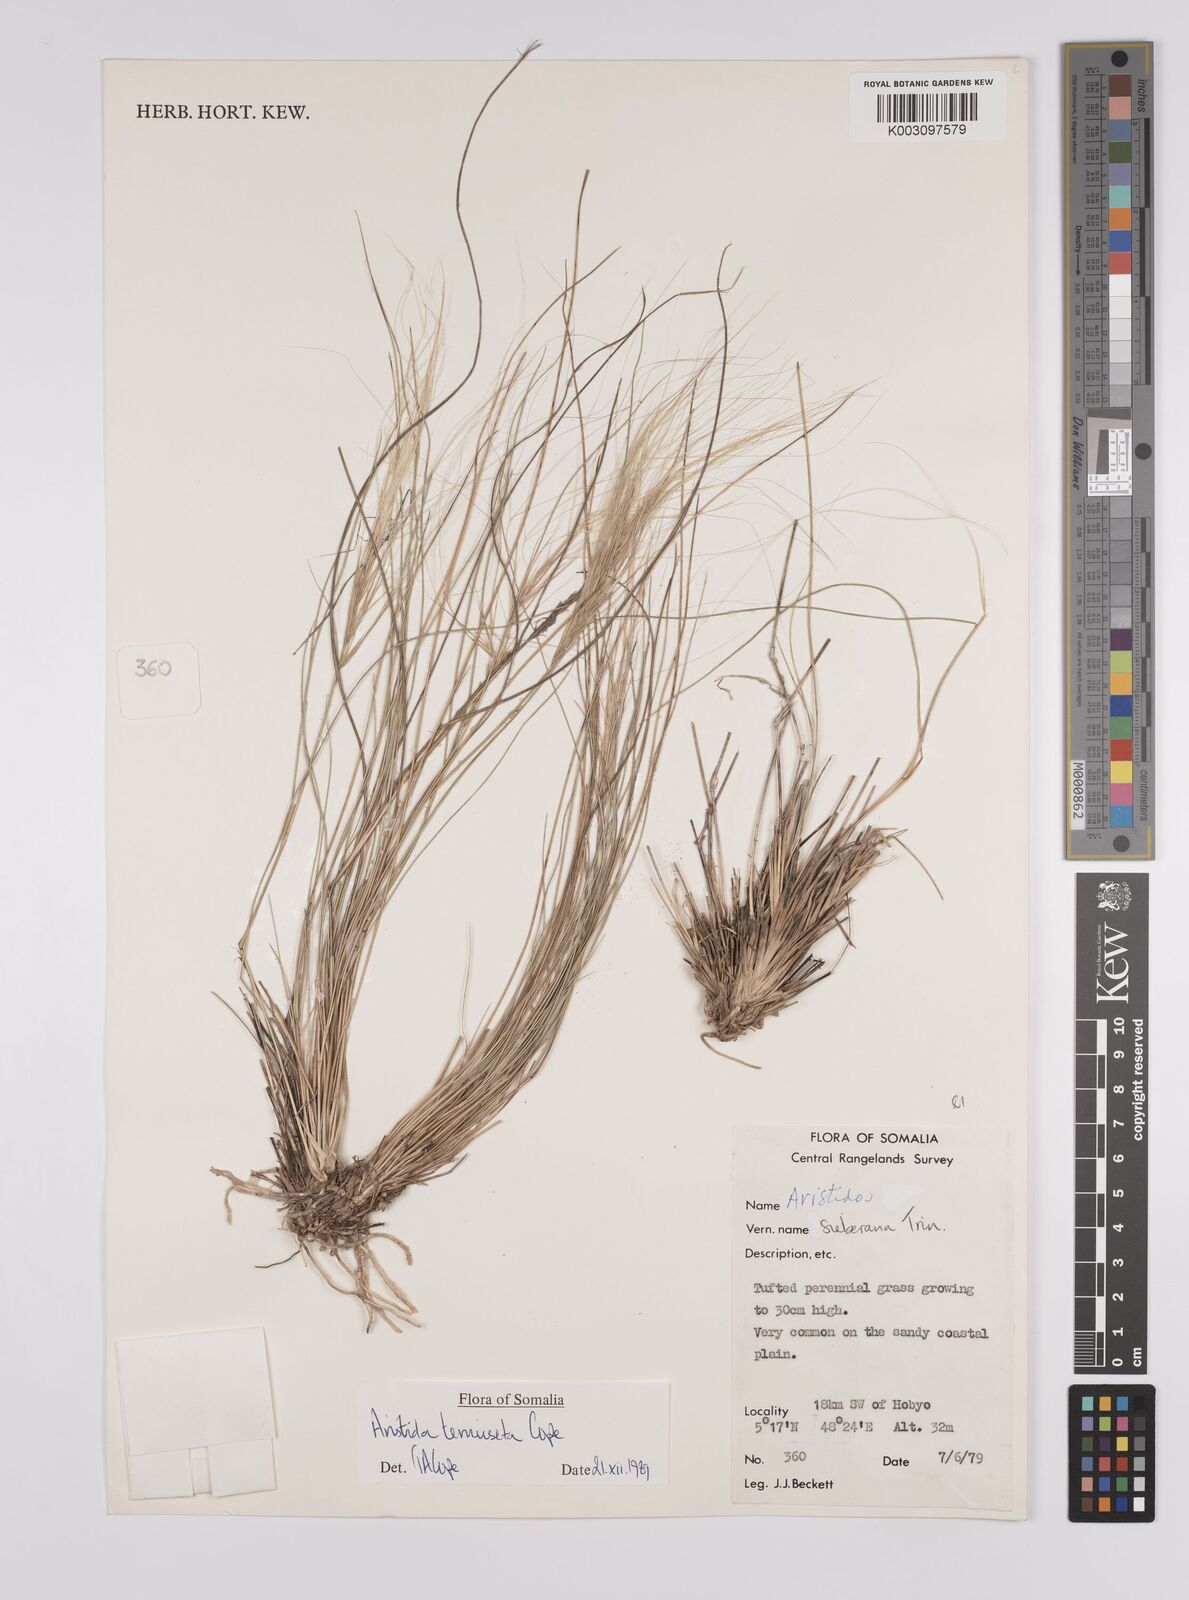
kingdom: Plantae
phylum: Tracheophyta
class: Liliopsida
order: Poales
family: Poaceae
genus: Aristida
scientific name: Aristida tenuiseta
